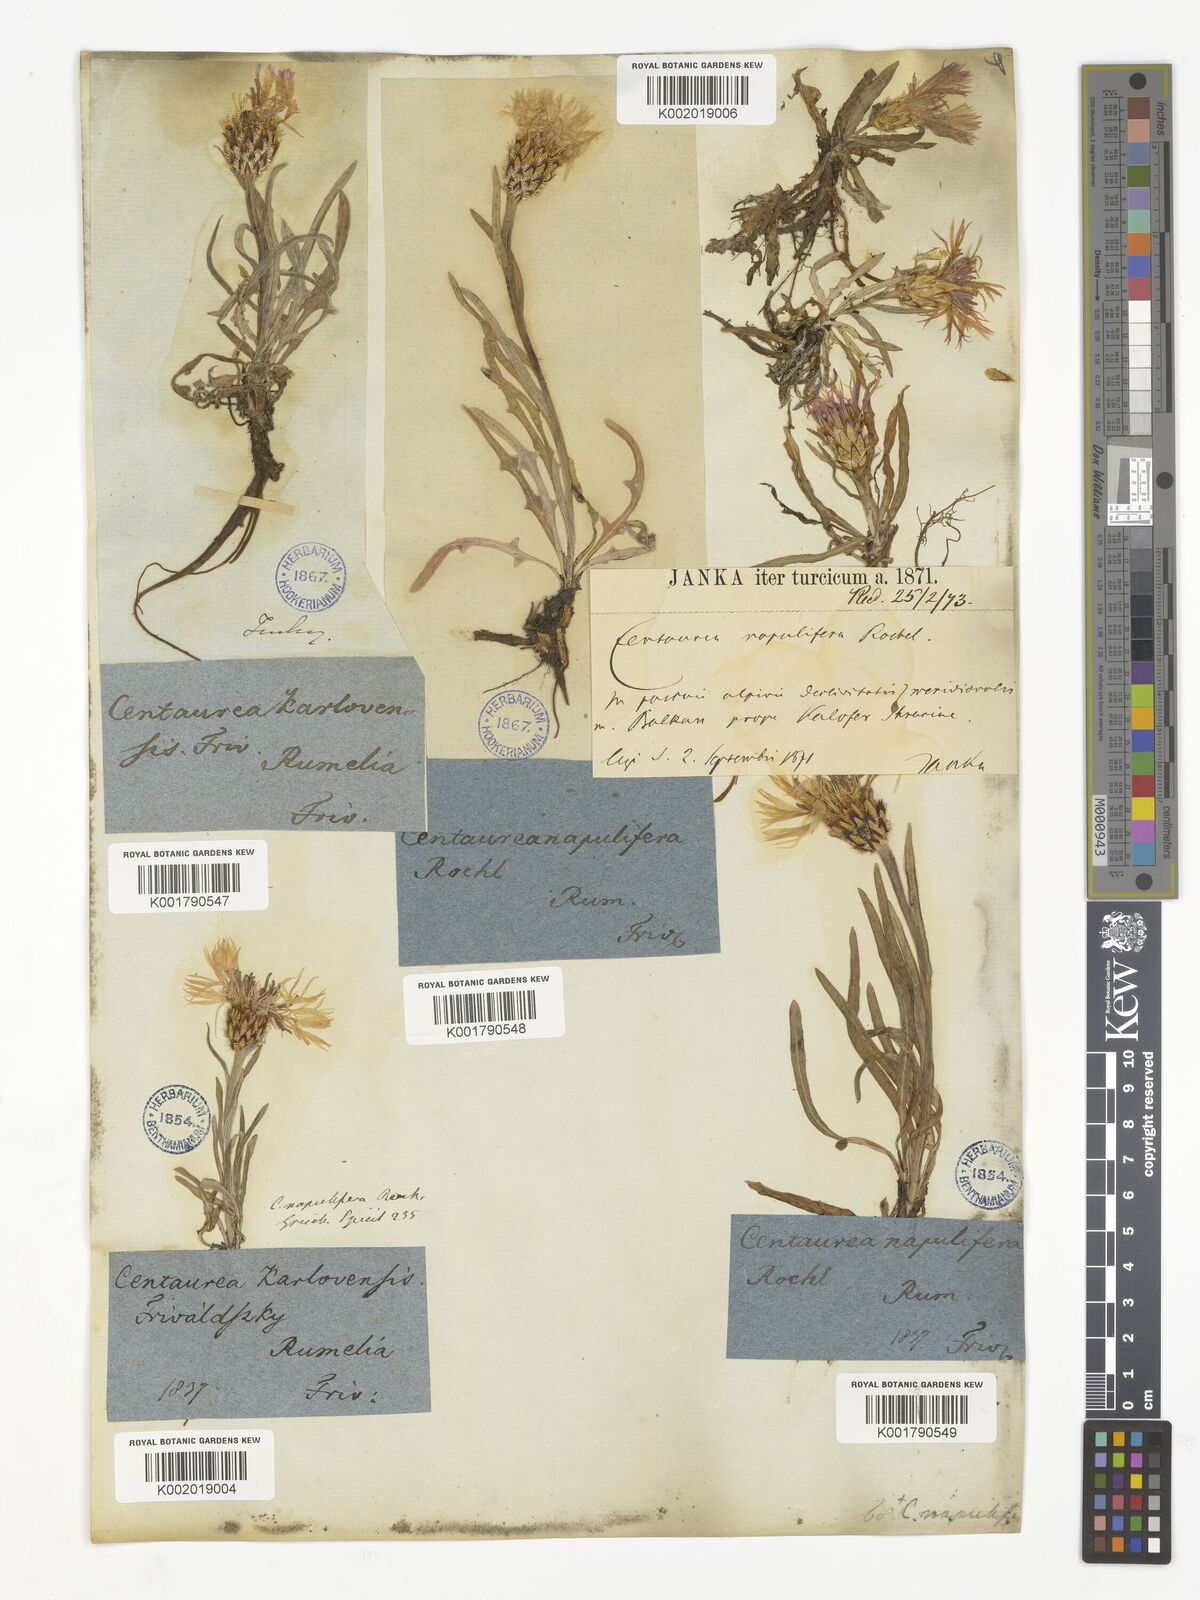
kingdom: Plantae
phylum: Tracheophyta
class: Magnoliopsida
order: Asterales
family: Asteraceae
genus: Centaurea
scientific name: Centaurea napulifera
